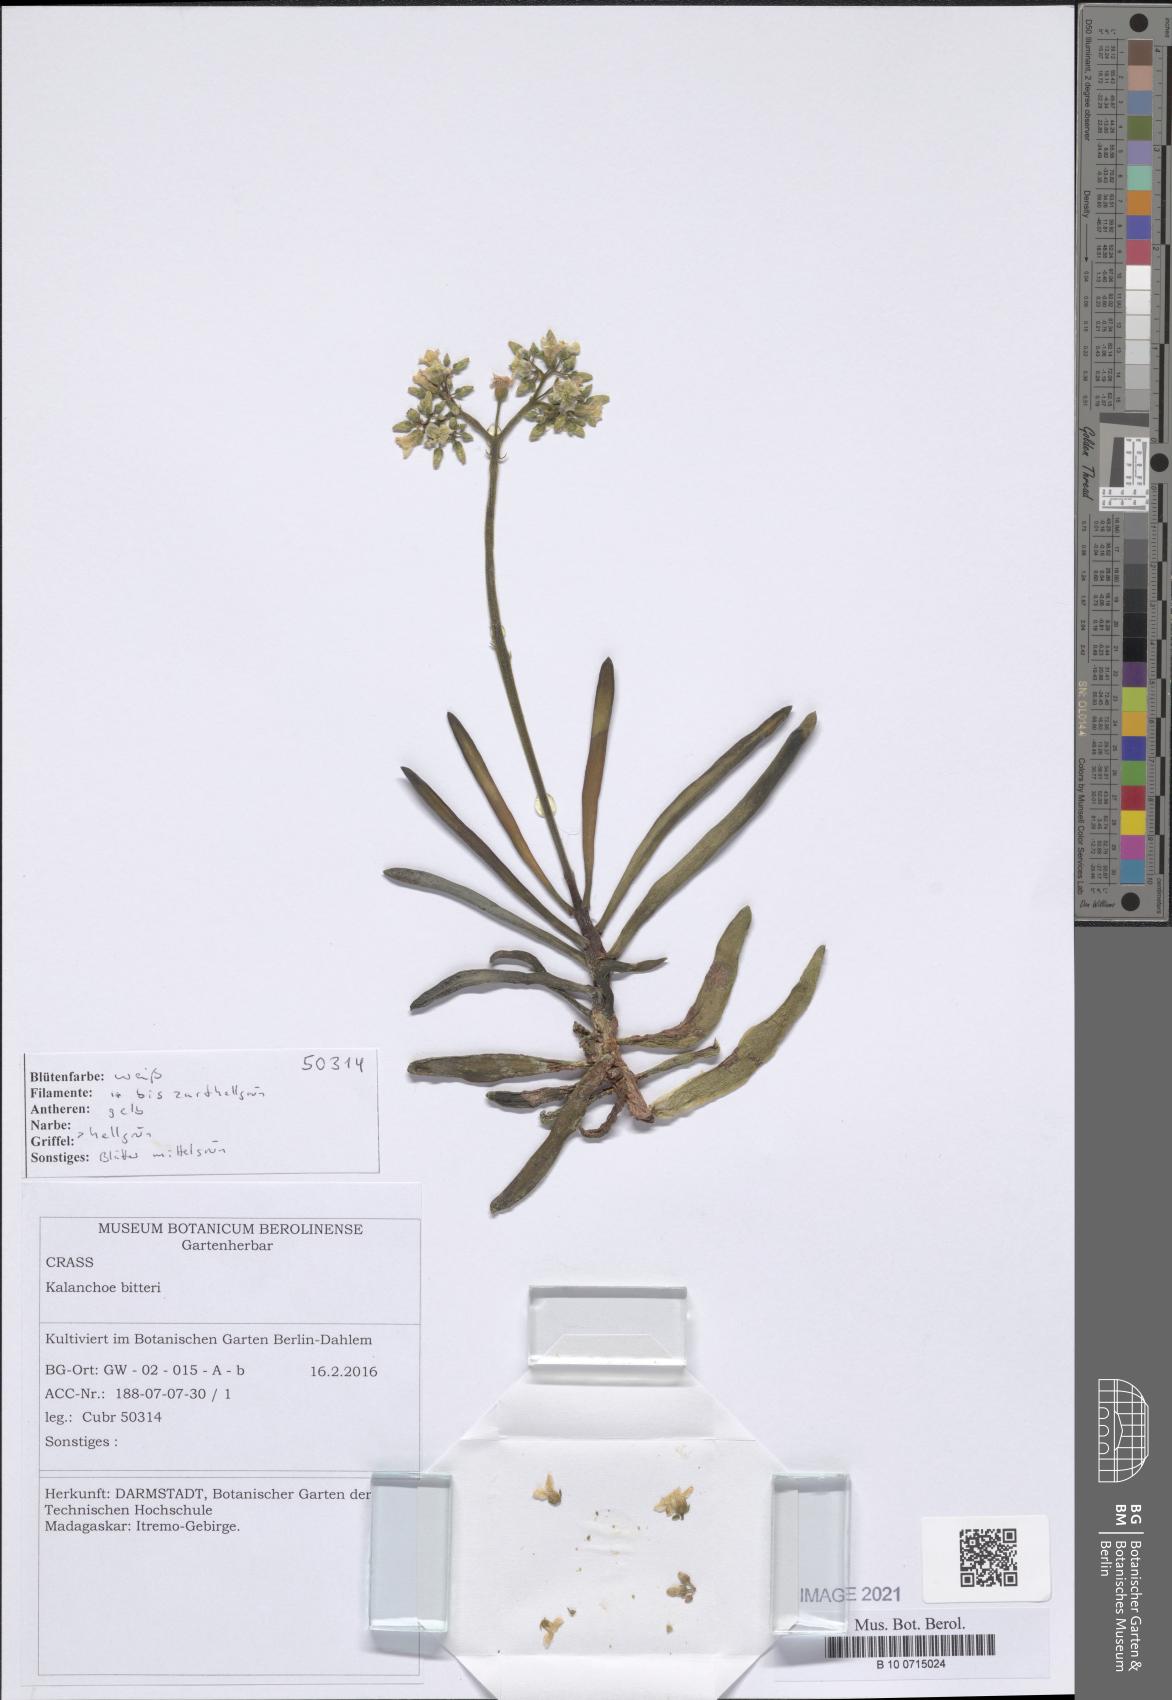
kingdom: Plantae
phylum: Tracheophyta
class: Magnoliopsida
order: Saxifragales
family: Crassulaceae
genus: Kalanchoe
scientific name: Kalanchoe bitteri
